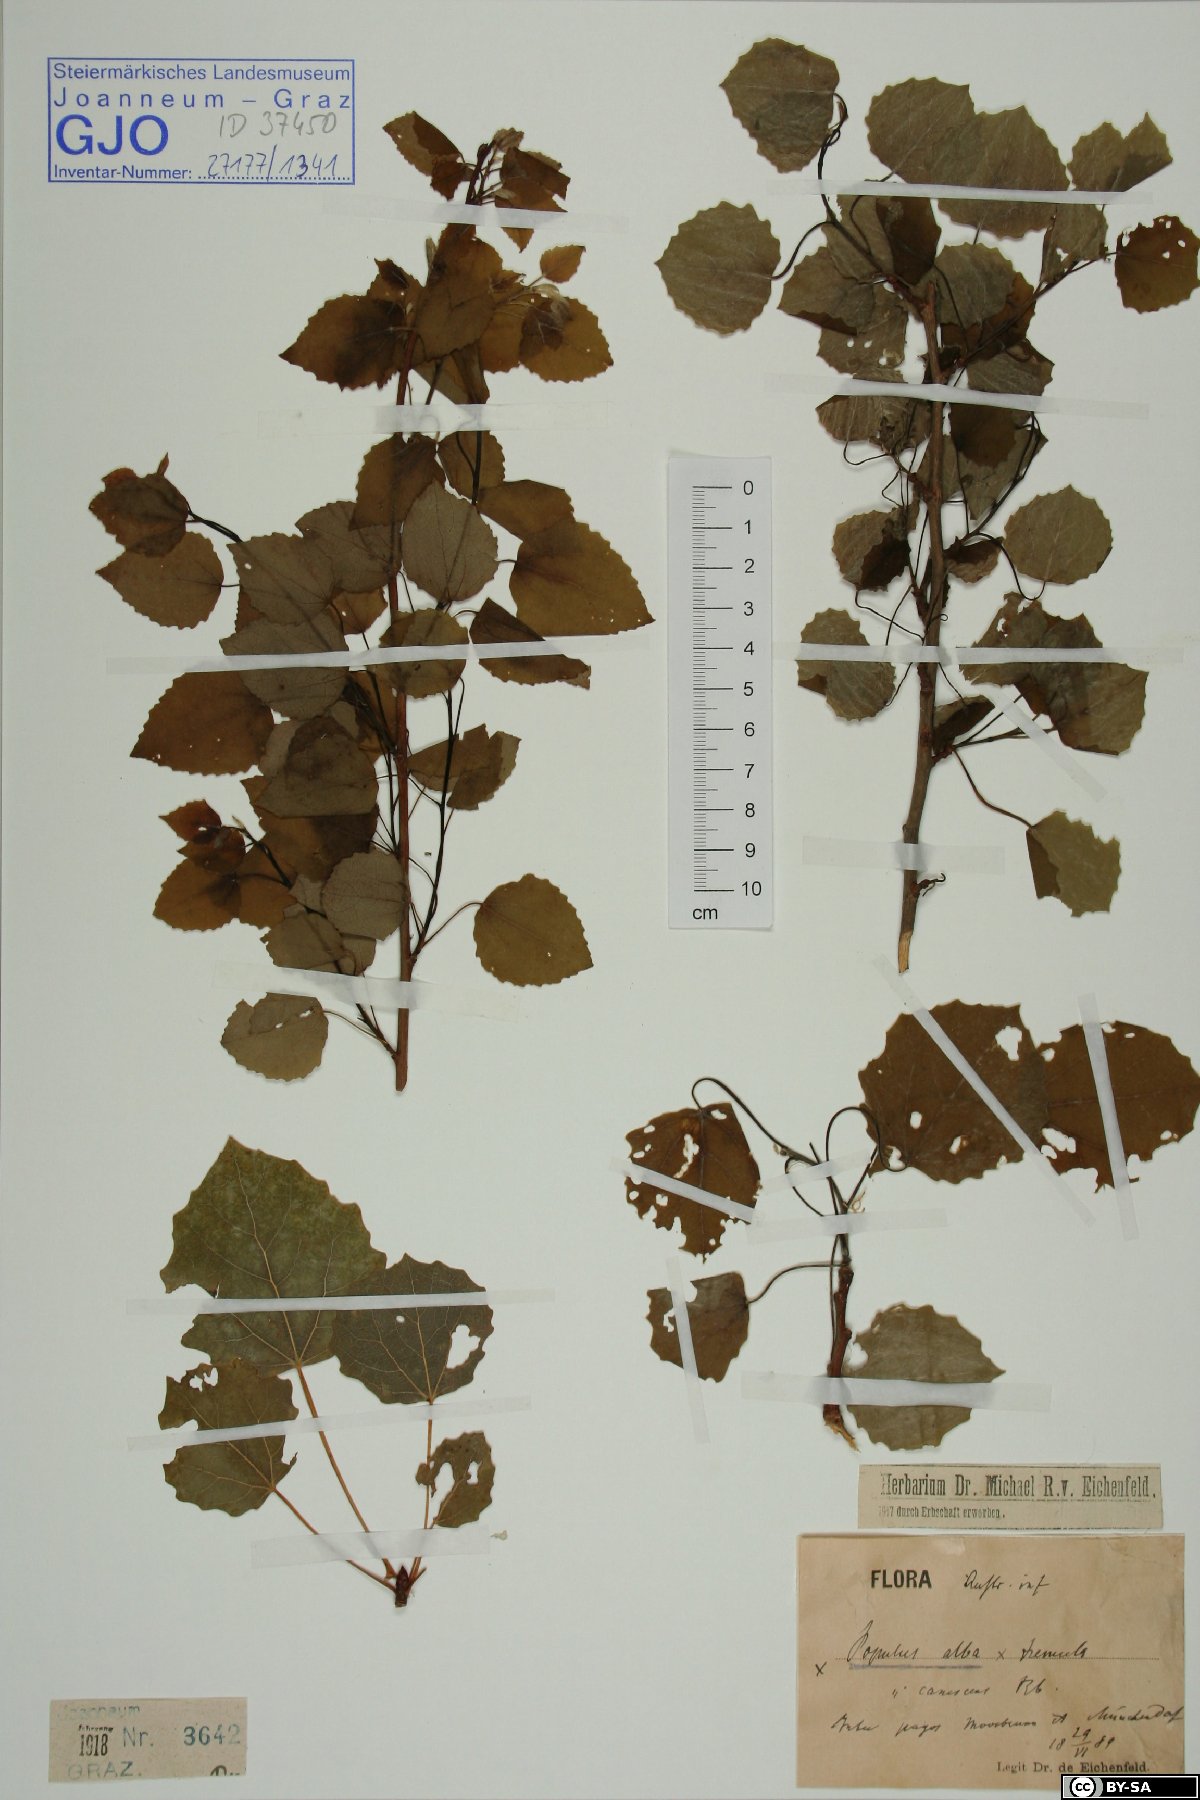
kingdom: Plantae
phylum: Tracheophyta
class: Magnoliopsida
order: Malpighiales
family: Salicaceae
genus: Populus
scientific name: Populus alba
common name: White poplar
